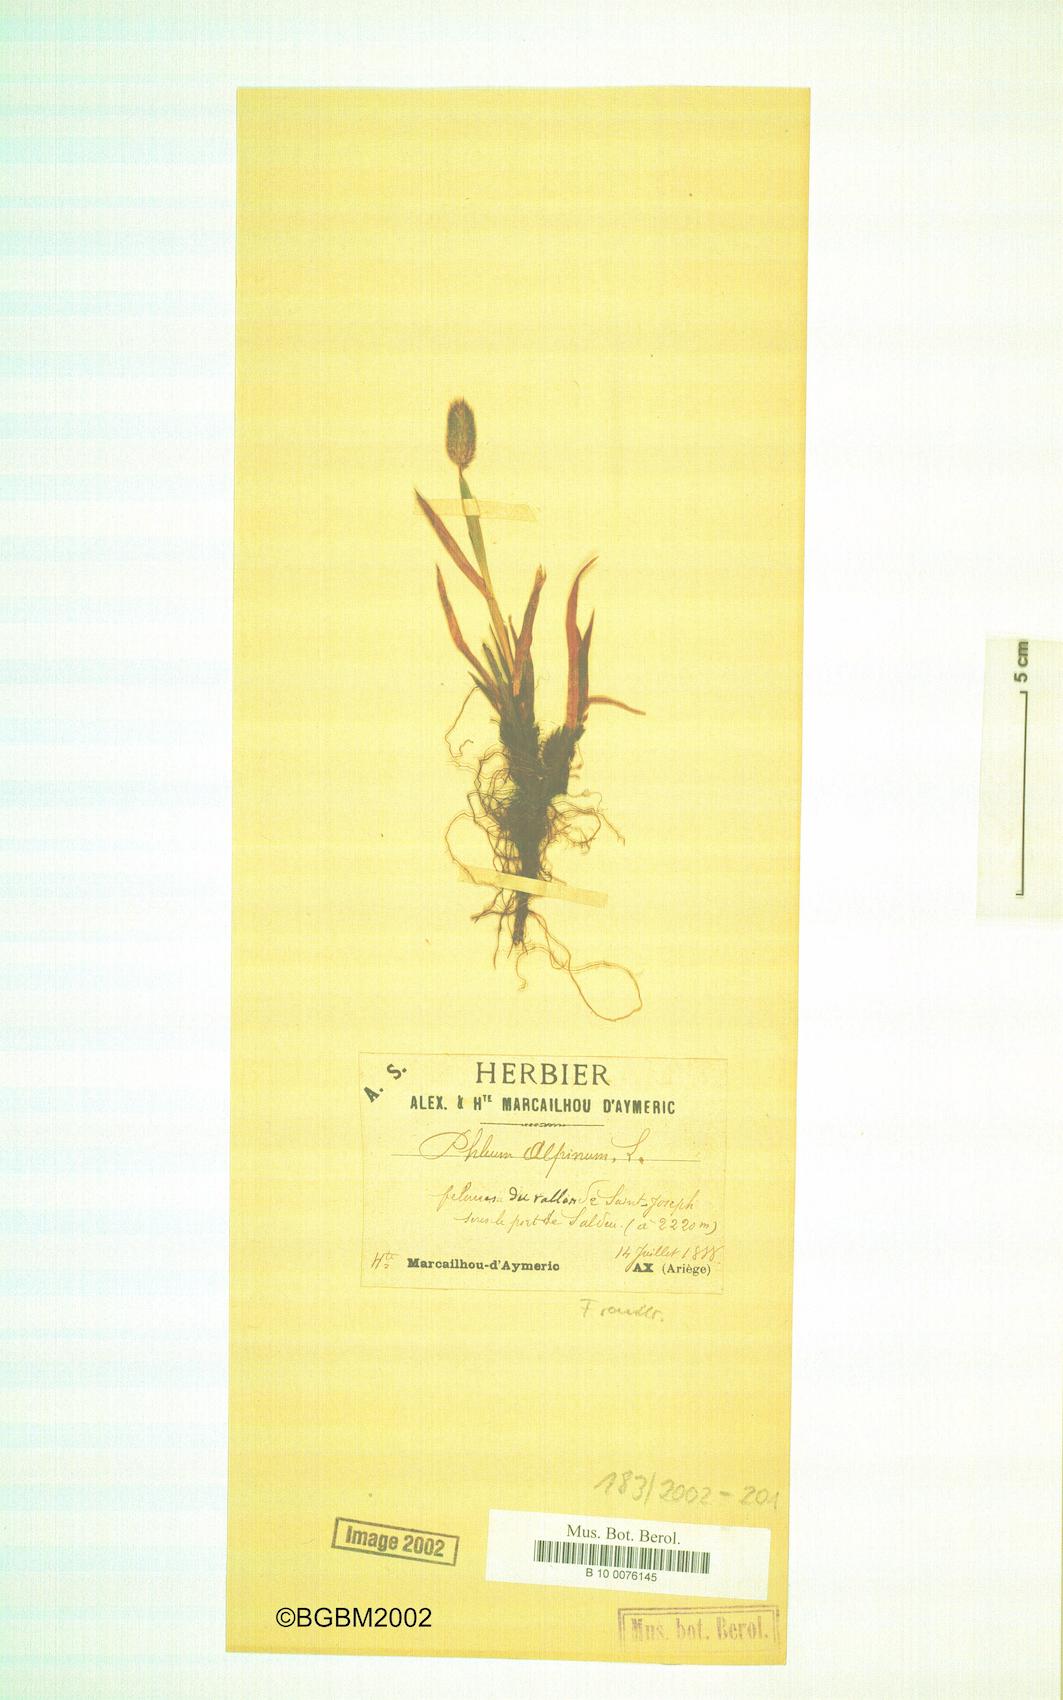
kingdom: Plantae
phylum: Tracheophyta
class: Liliopsida
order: Poales
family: Poaceae
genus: Phleum
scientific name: Phleum alpinum
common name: Alpine cat's-tail
